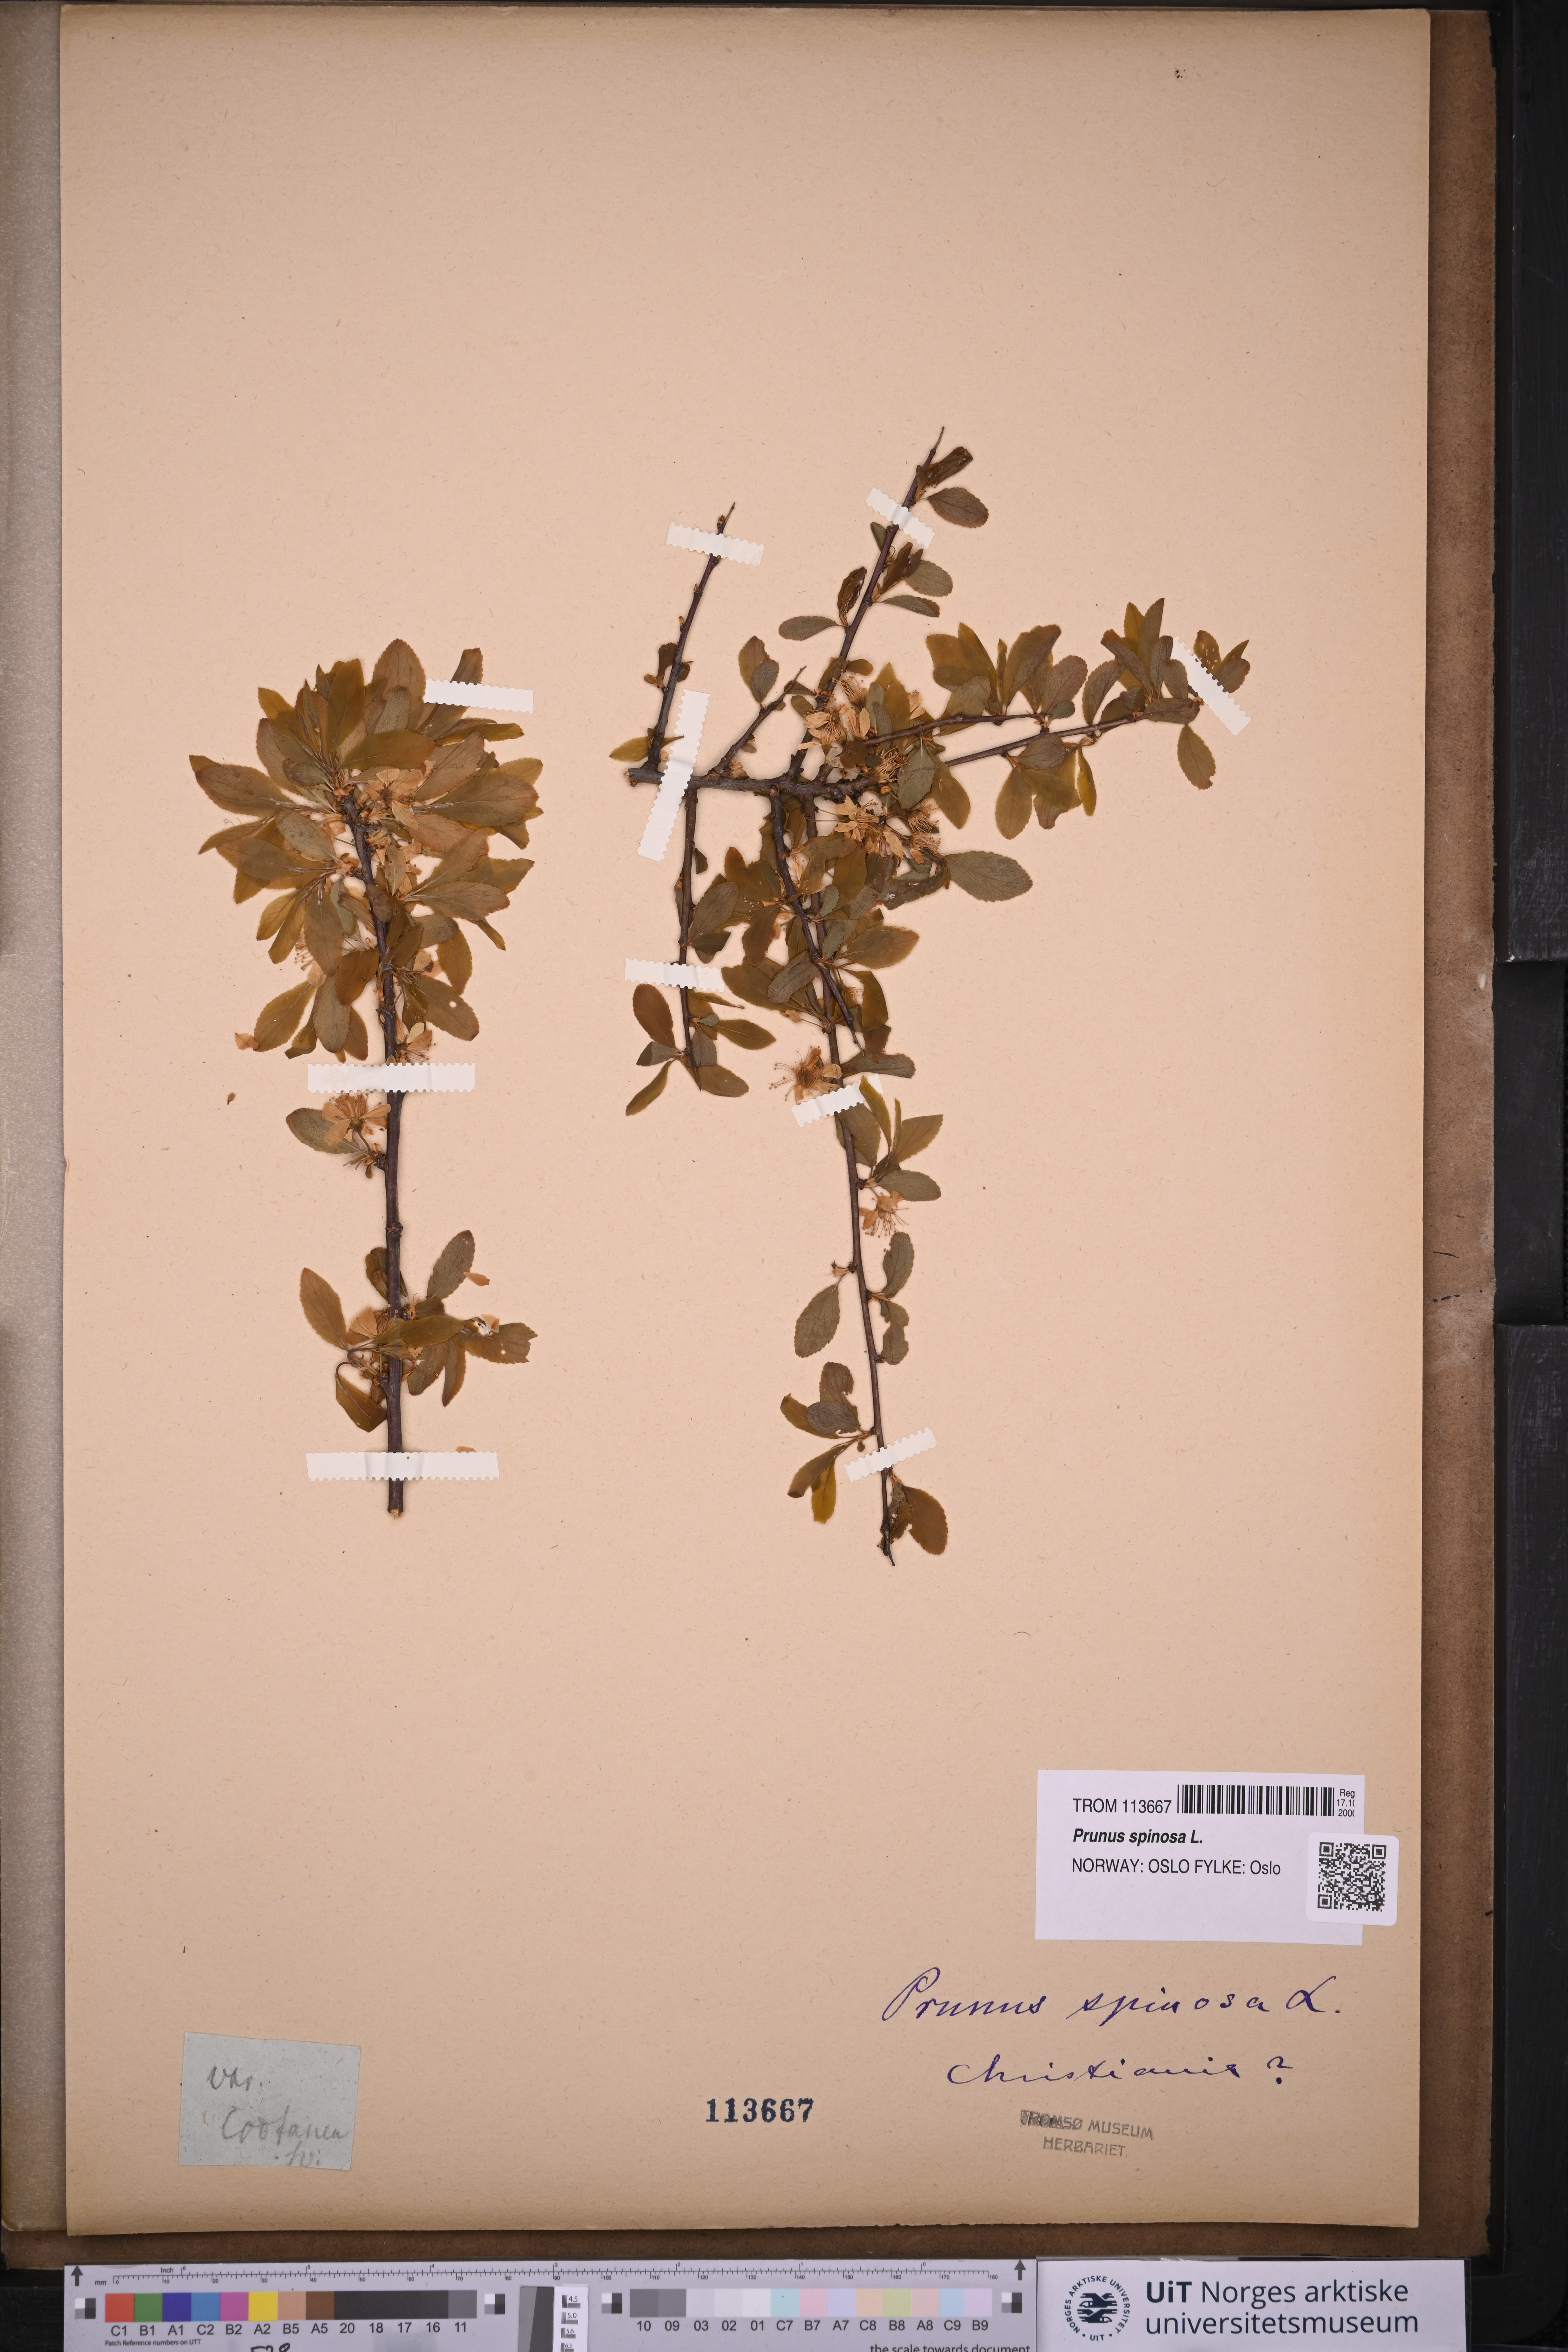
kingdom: Plantae
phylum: Tracheophyta
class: Magnoliopsida
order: Rosales
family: Rosaceae
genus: Prunus
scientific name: Prunus spinosa
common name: Blackthorn
